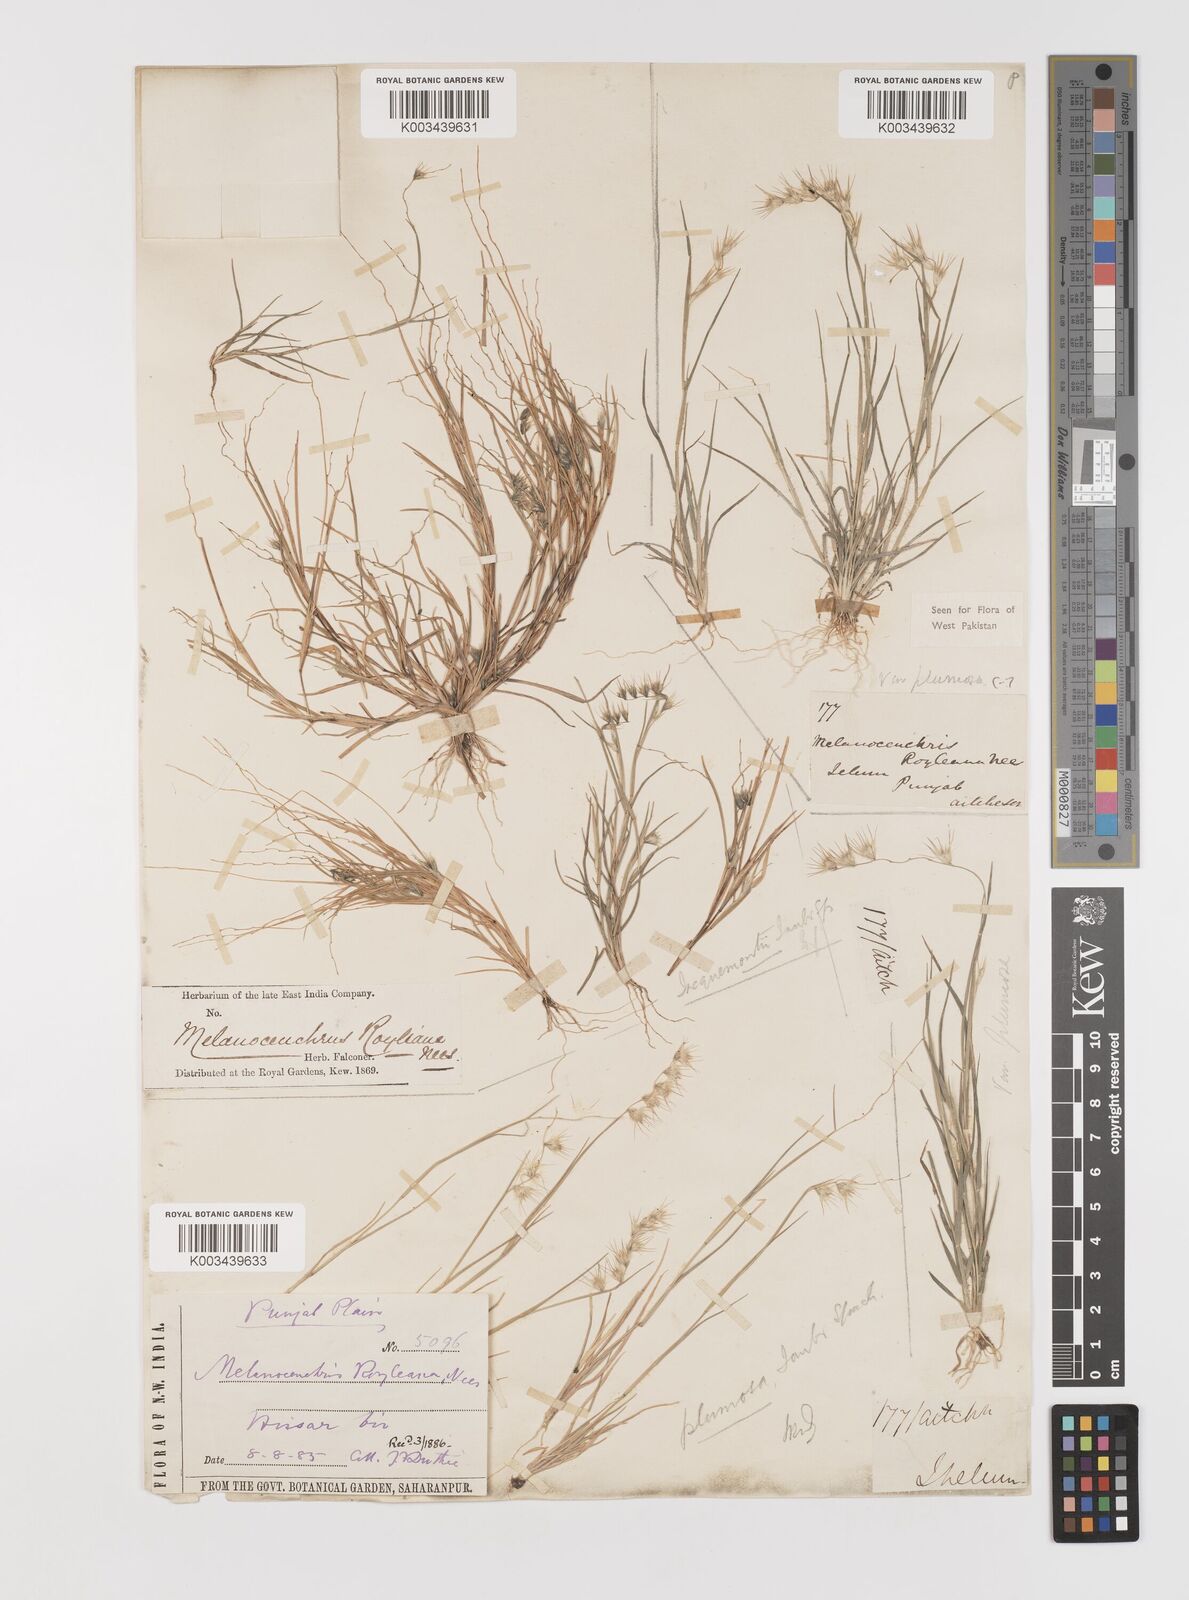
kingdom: Plantae
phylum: Tracheophyta
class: Liliopsida
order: Poales
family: Poaceae
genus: Melanocenchris
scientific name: Melanocenchris abyssinica
